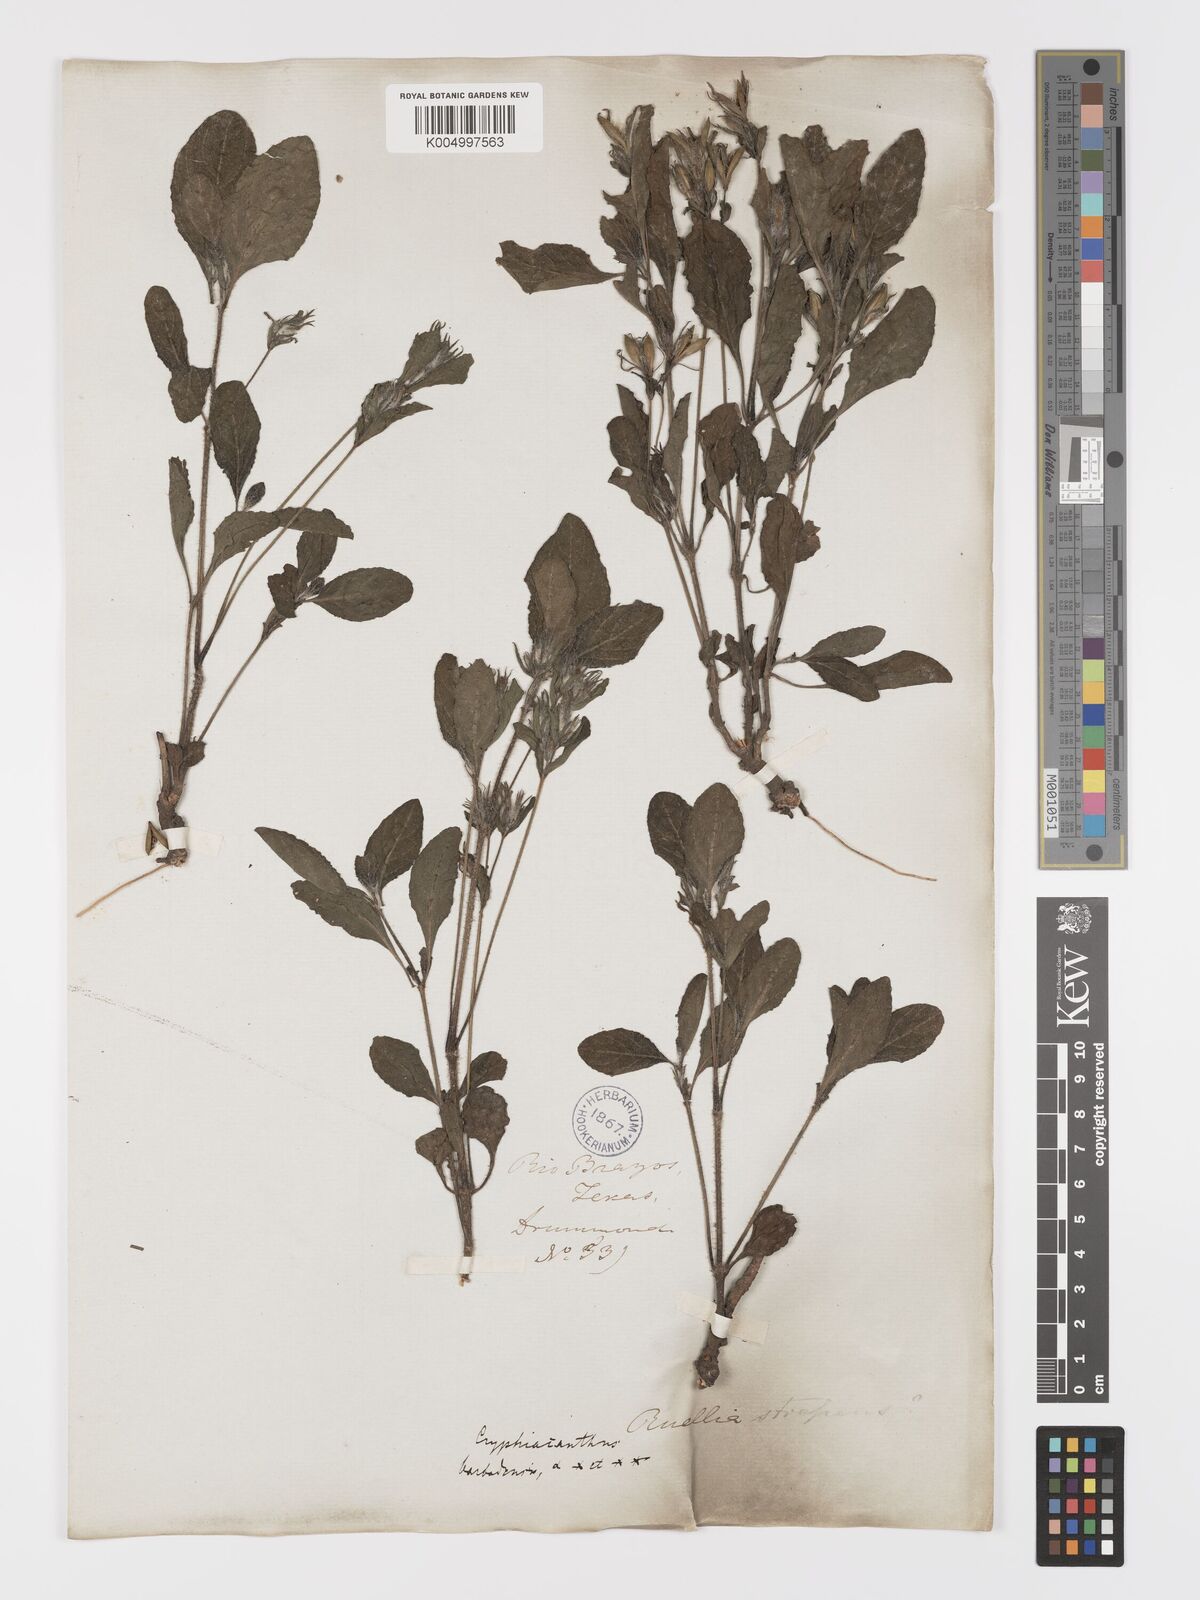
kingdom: Plantae
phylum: Tracheophyta
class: Magnoliopsida
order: Lamiales
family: Acanthaceae
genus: Ruellia
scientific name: Ruellia tuberosa
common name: Devil's bit
